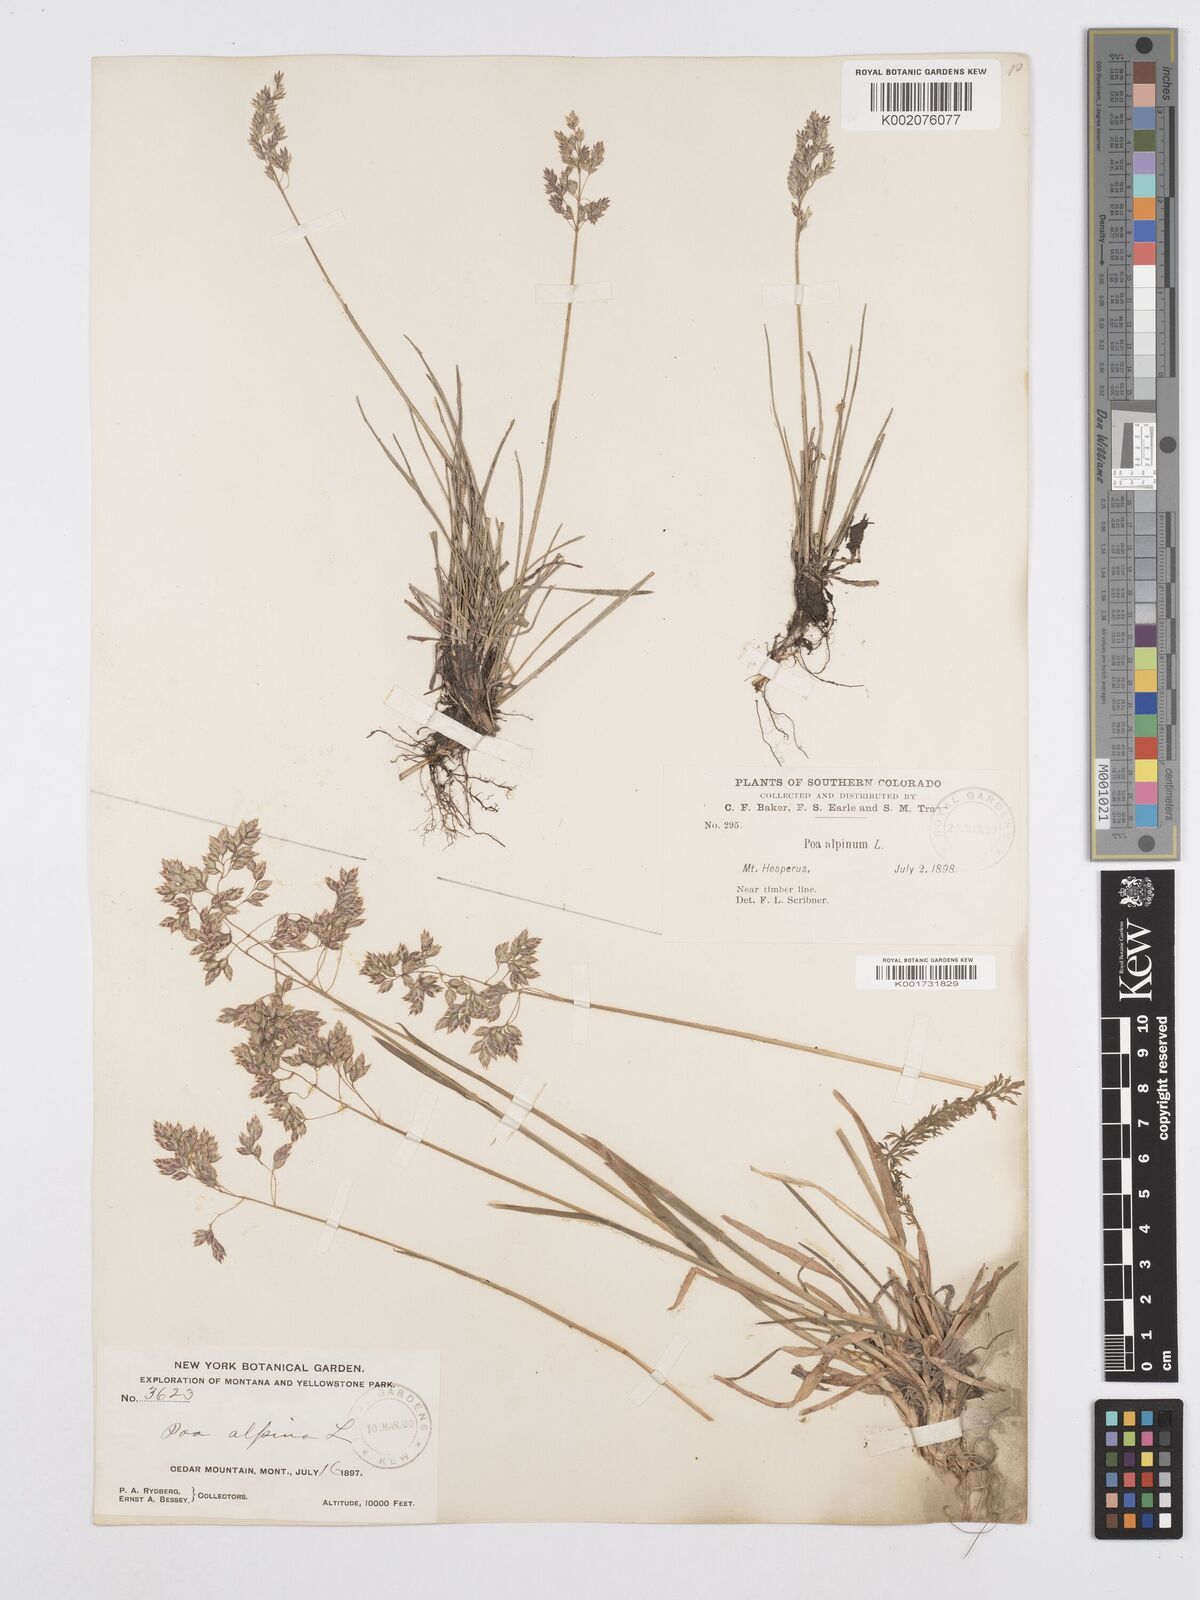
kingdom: Plantae
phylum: Tracheophyta
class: Liliopsida
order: Poales
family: Poaceae
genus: Poa
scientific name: Poa alpina
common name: Alpine bluegrass
